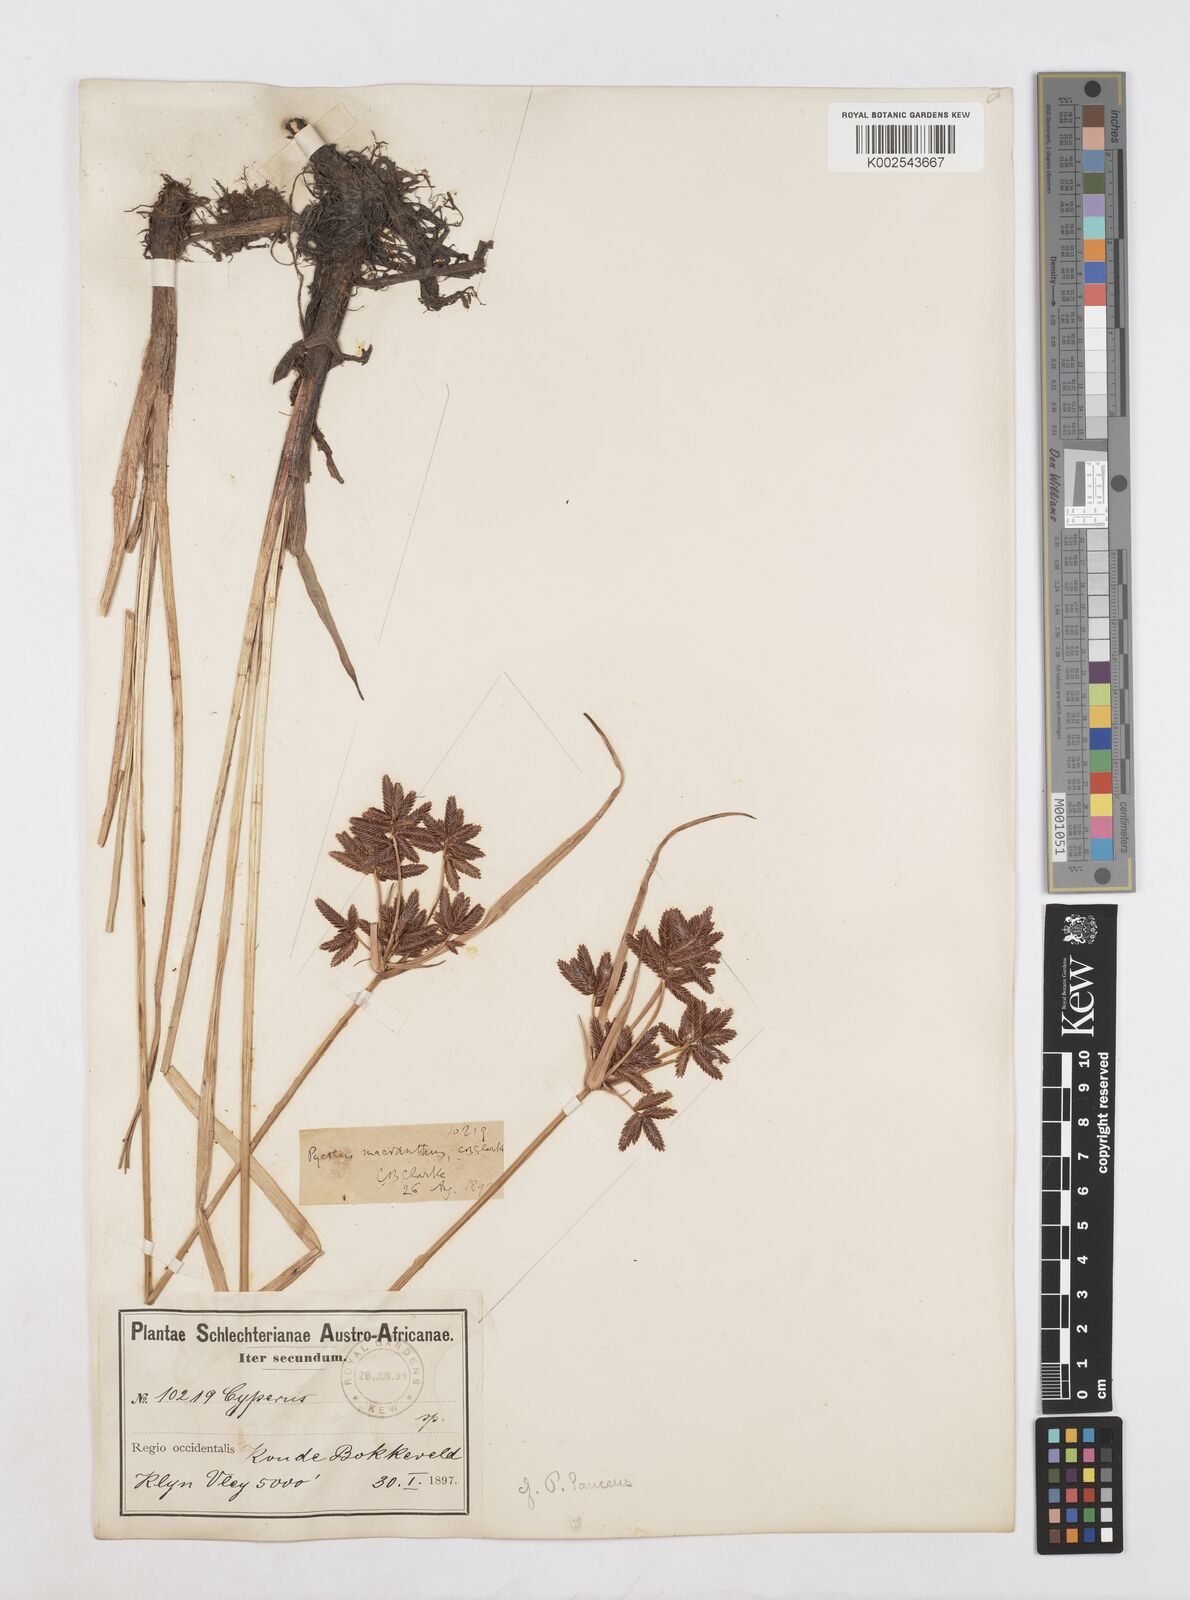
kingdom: Plantae
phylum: Tracheophyta
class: Liliopsida
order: Poales
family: Cyperaceae
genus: Cyperus
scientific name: Cyperus nitidus
